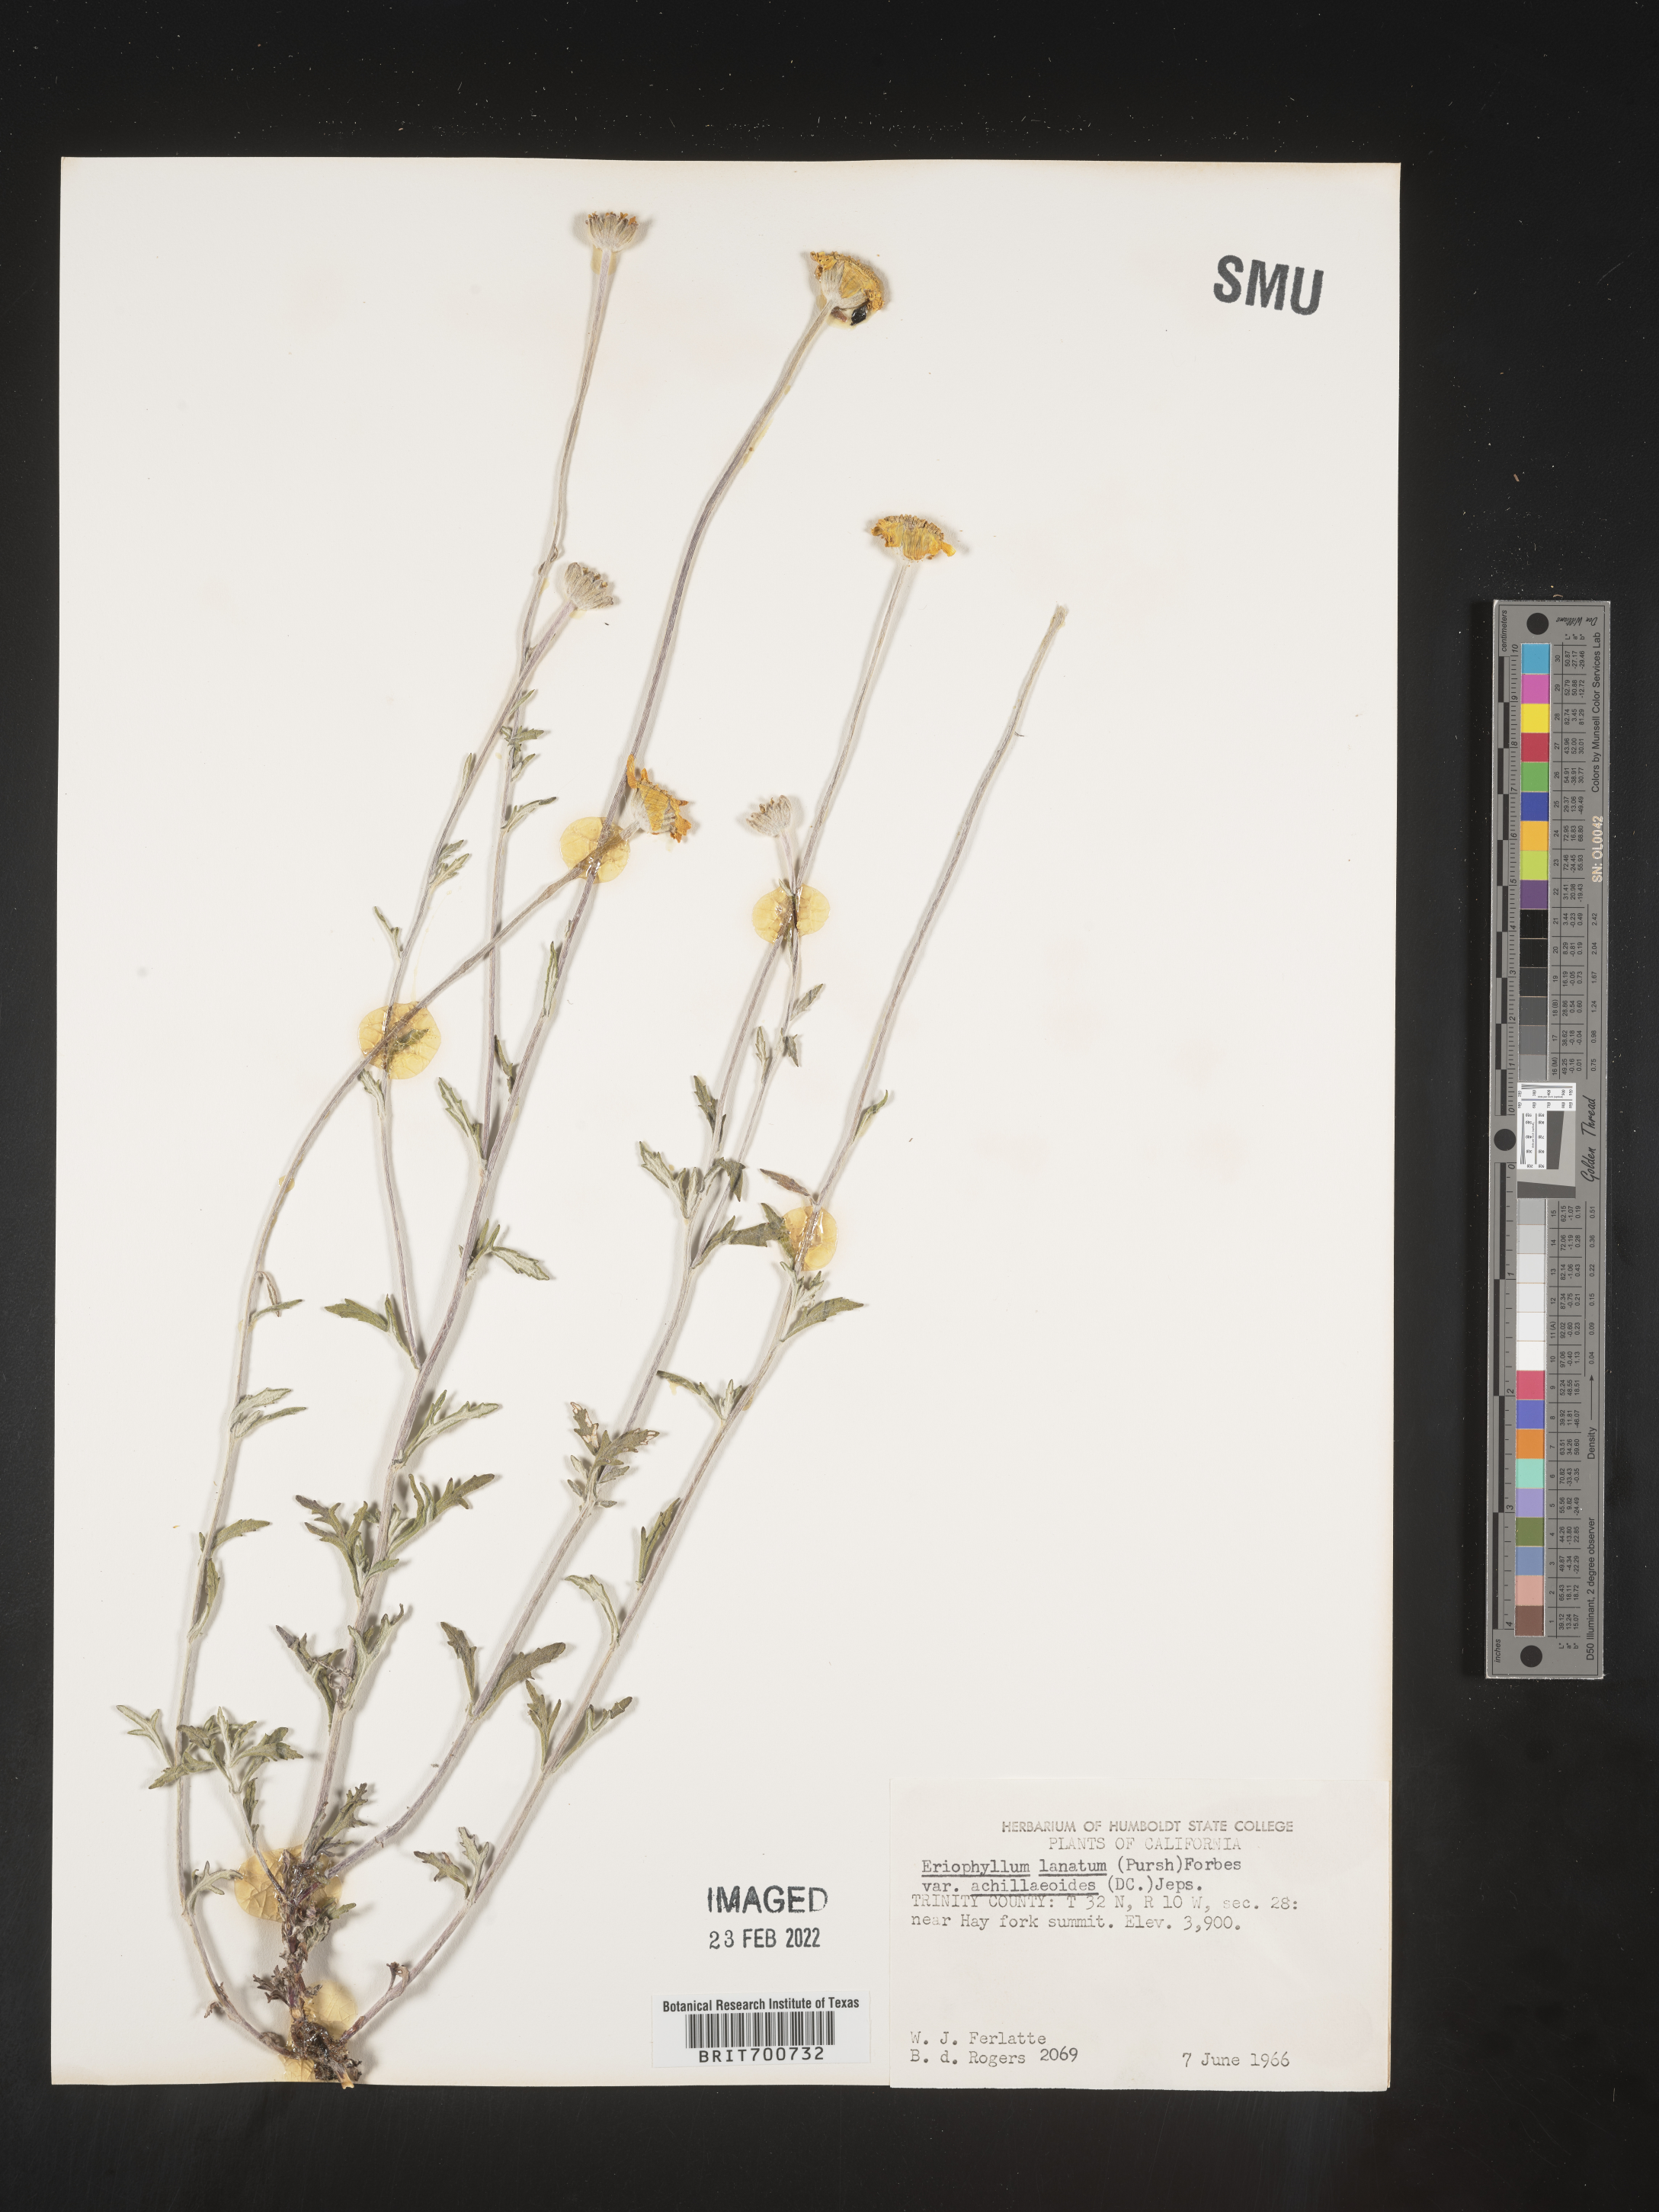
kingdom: Plantae
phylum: Tracheophyta
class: Magnoliopsida
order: Asterales
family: Asteraceae
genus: Eriophyllum
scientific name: Eriophyllum lanatum
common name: Common woolly-sunflower
